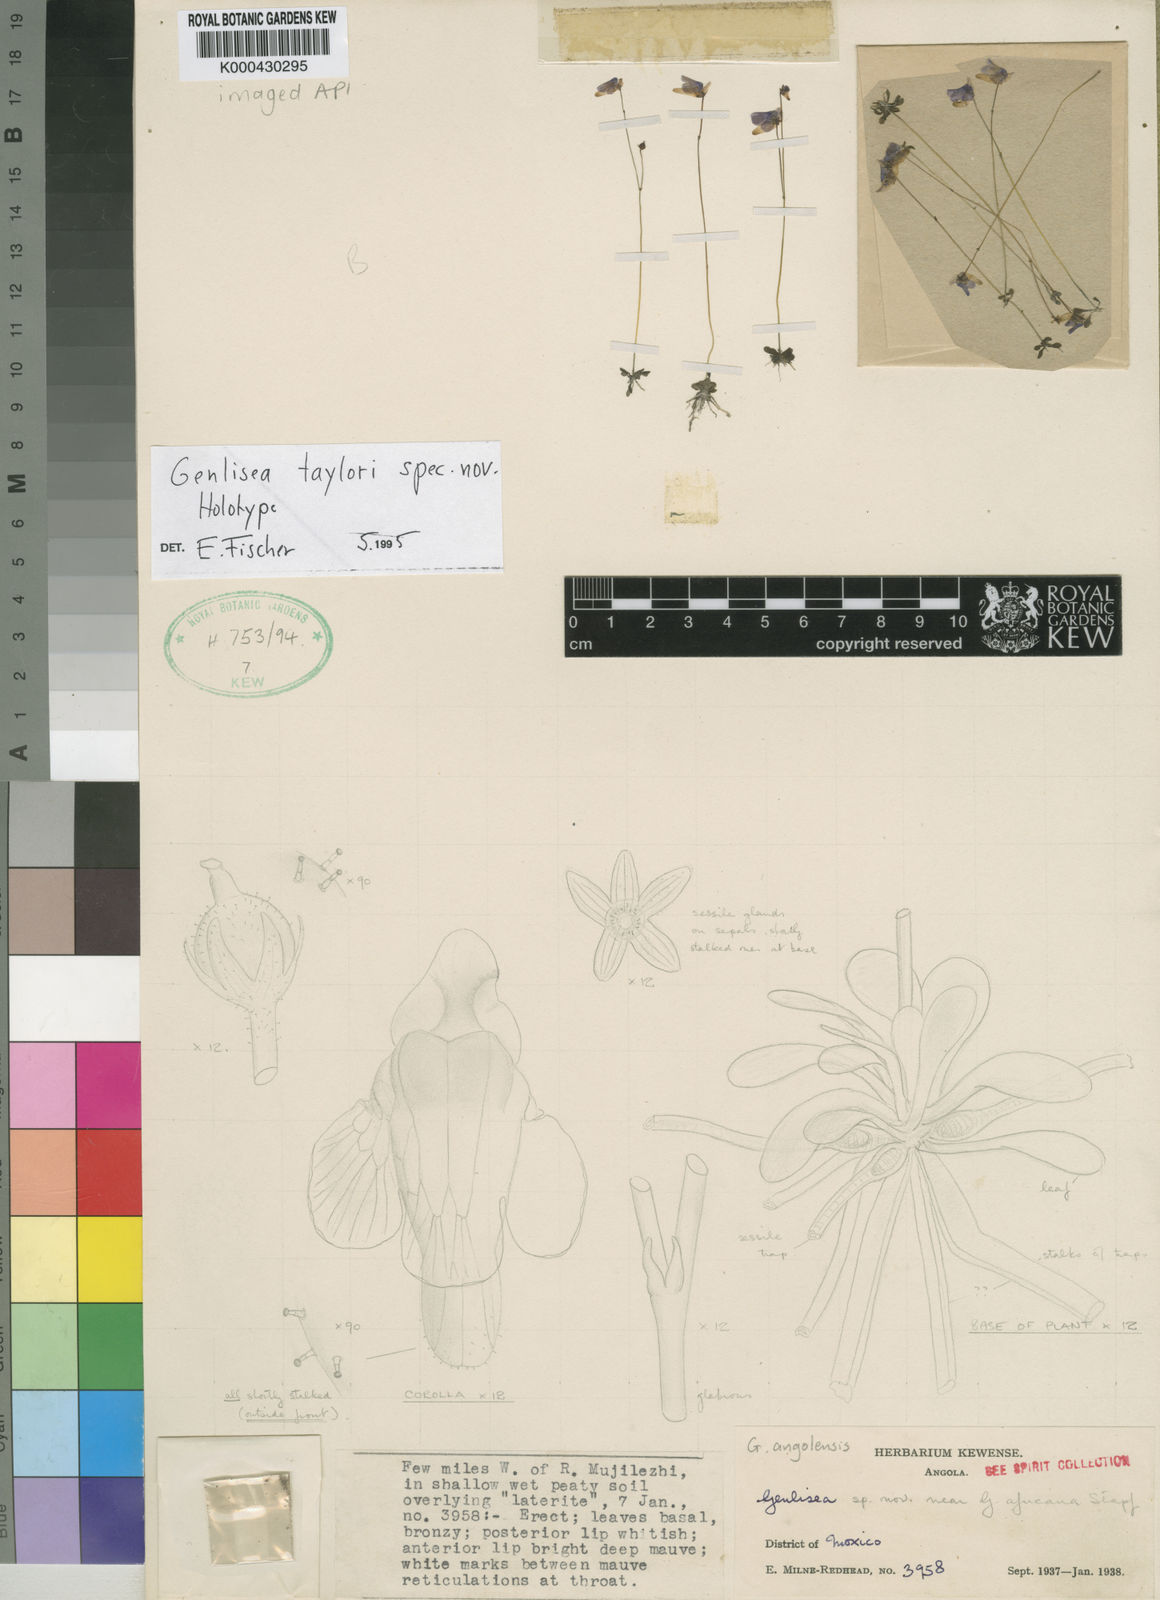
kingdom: Plantae
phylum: Tracheophyta
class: Magnoliopsida
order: Lamiales
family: Lentibulariaceae
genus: Genlisea
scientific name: Genlisea subglabra
